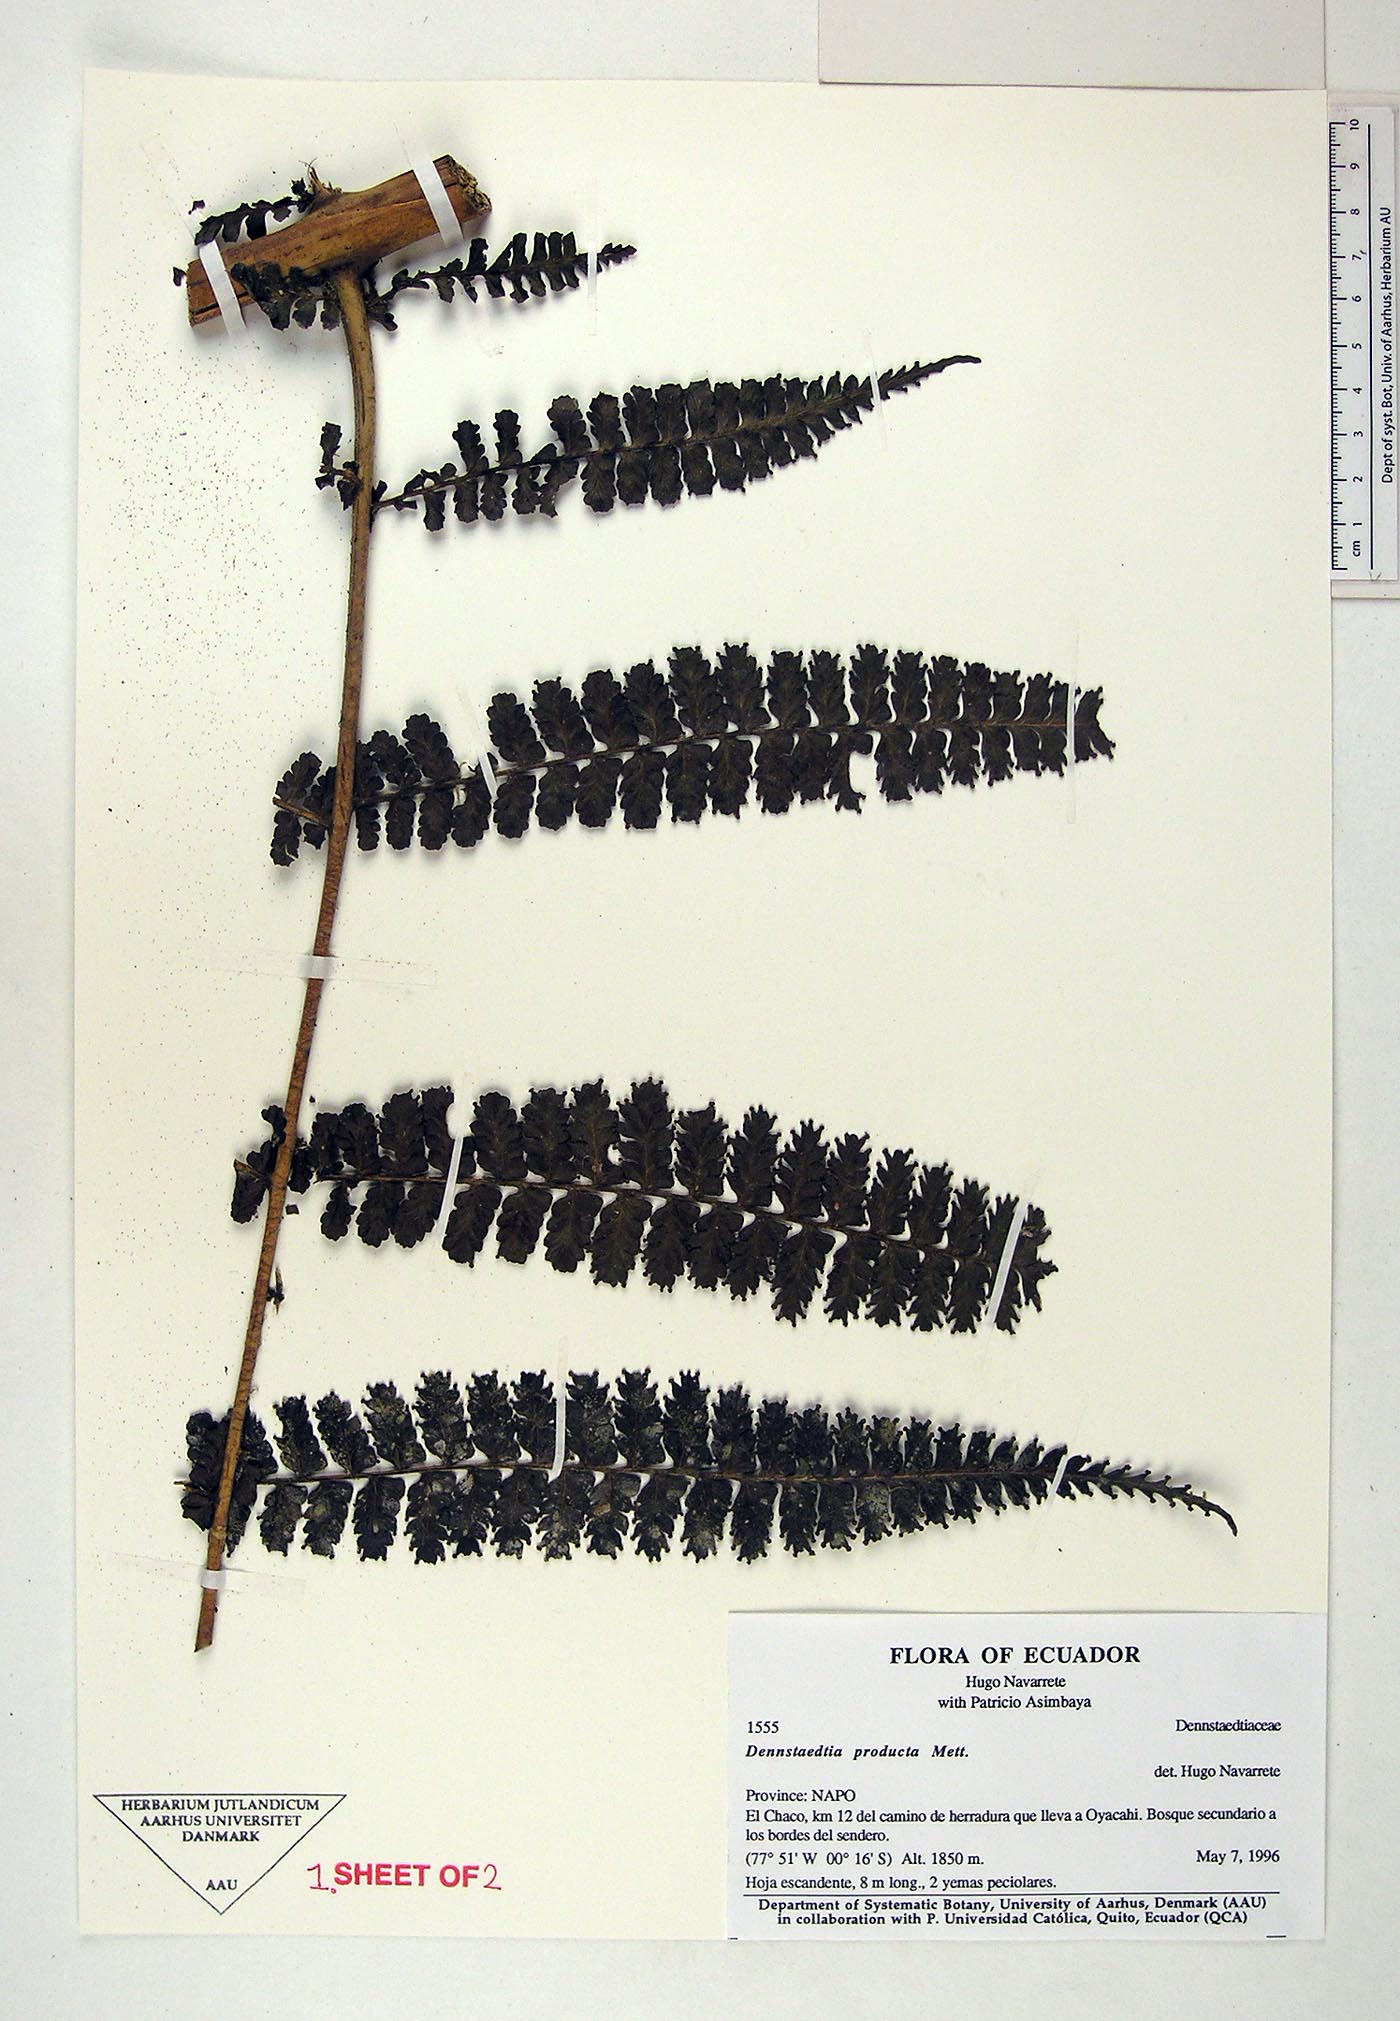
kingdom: Plantae
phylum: Tracheophyta
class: Polypodiopsida
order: Polypodiales
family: Dennstaedtiaceae
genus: Dennstaedtia
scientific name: Dennstaedtia producta
